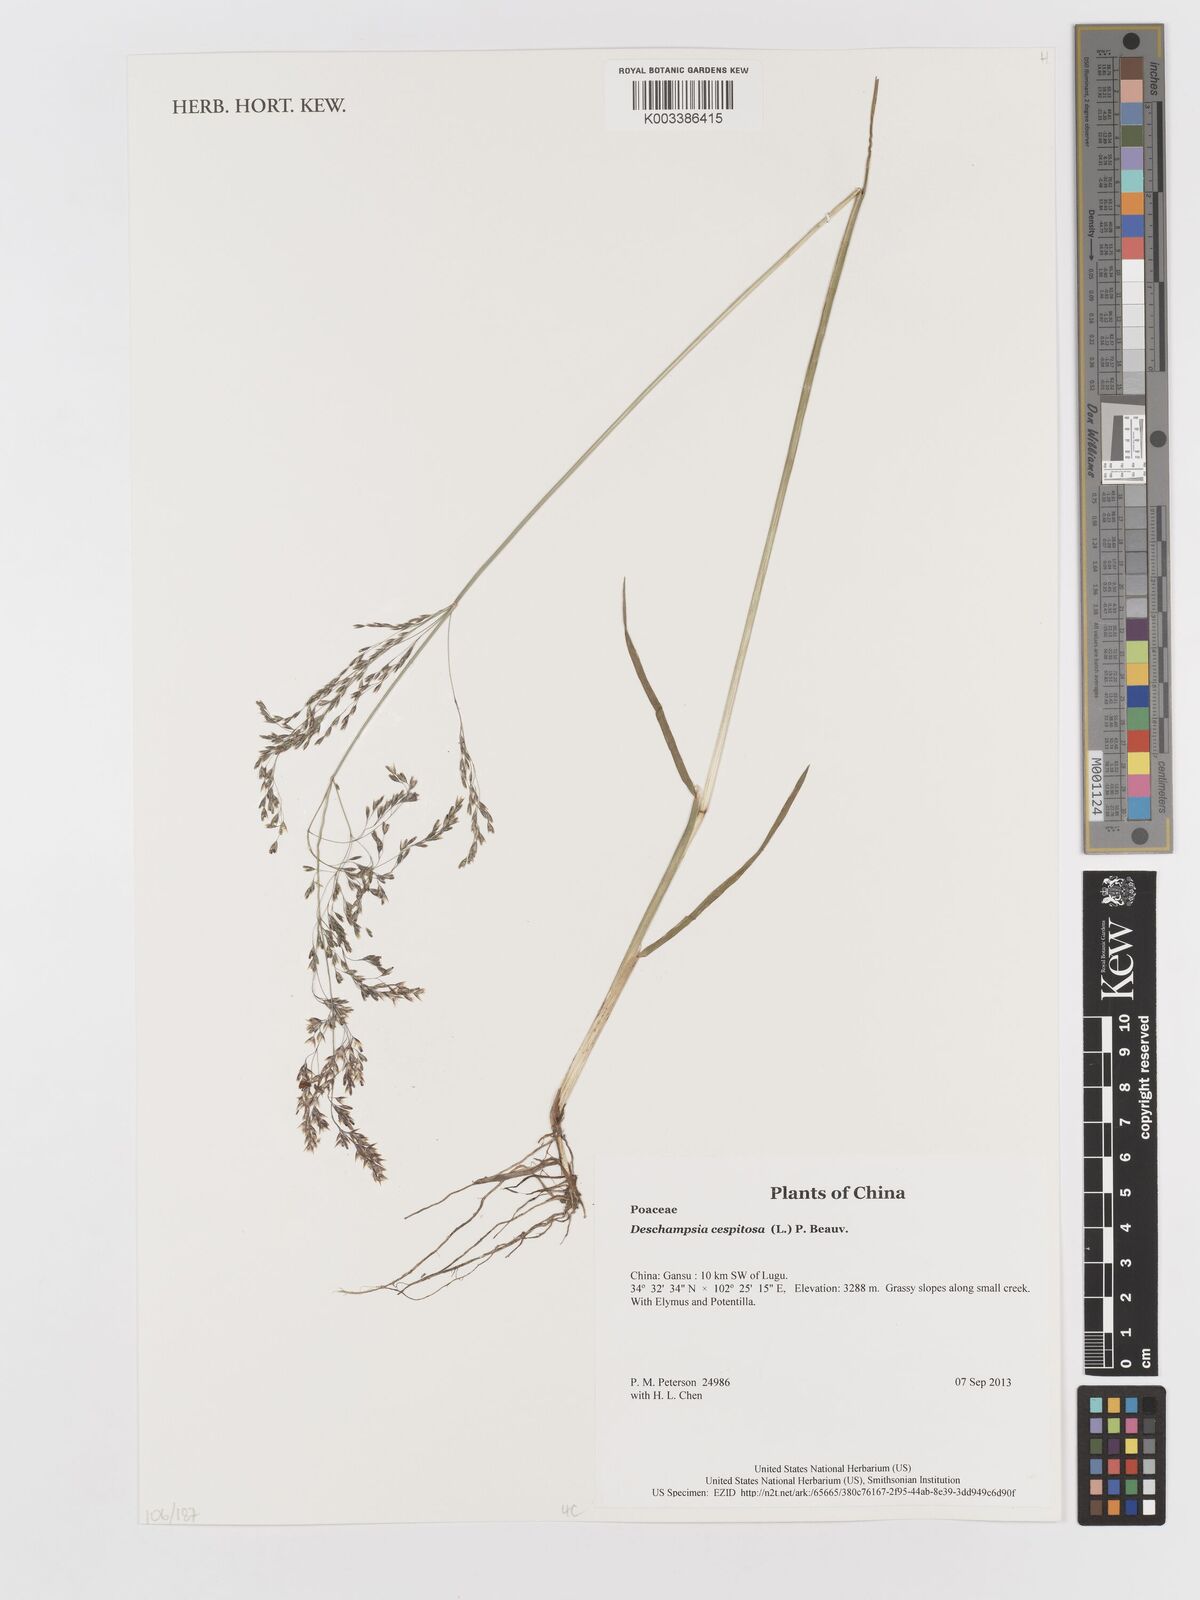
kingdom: Plantae
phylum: Tracheophyta
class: Liliopsida
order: Poales
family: Poaceae
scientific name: Poaceae
